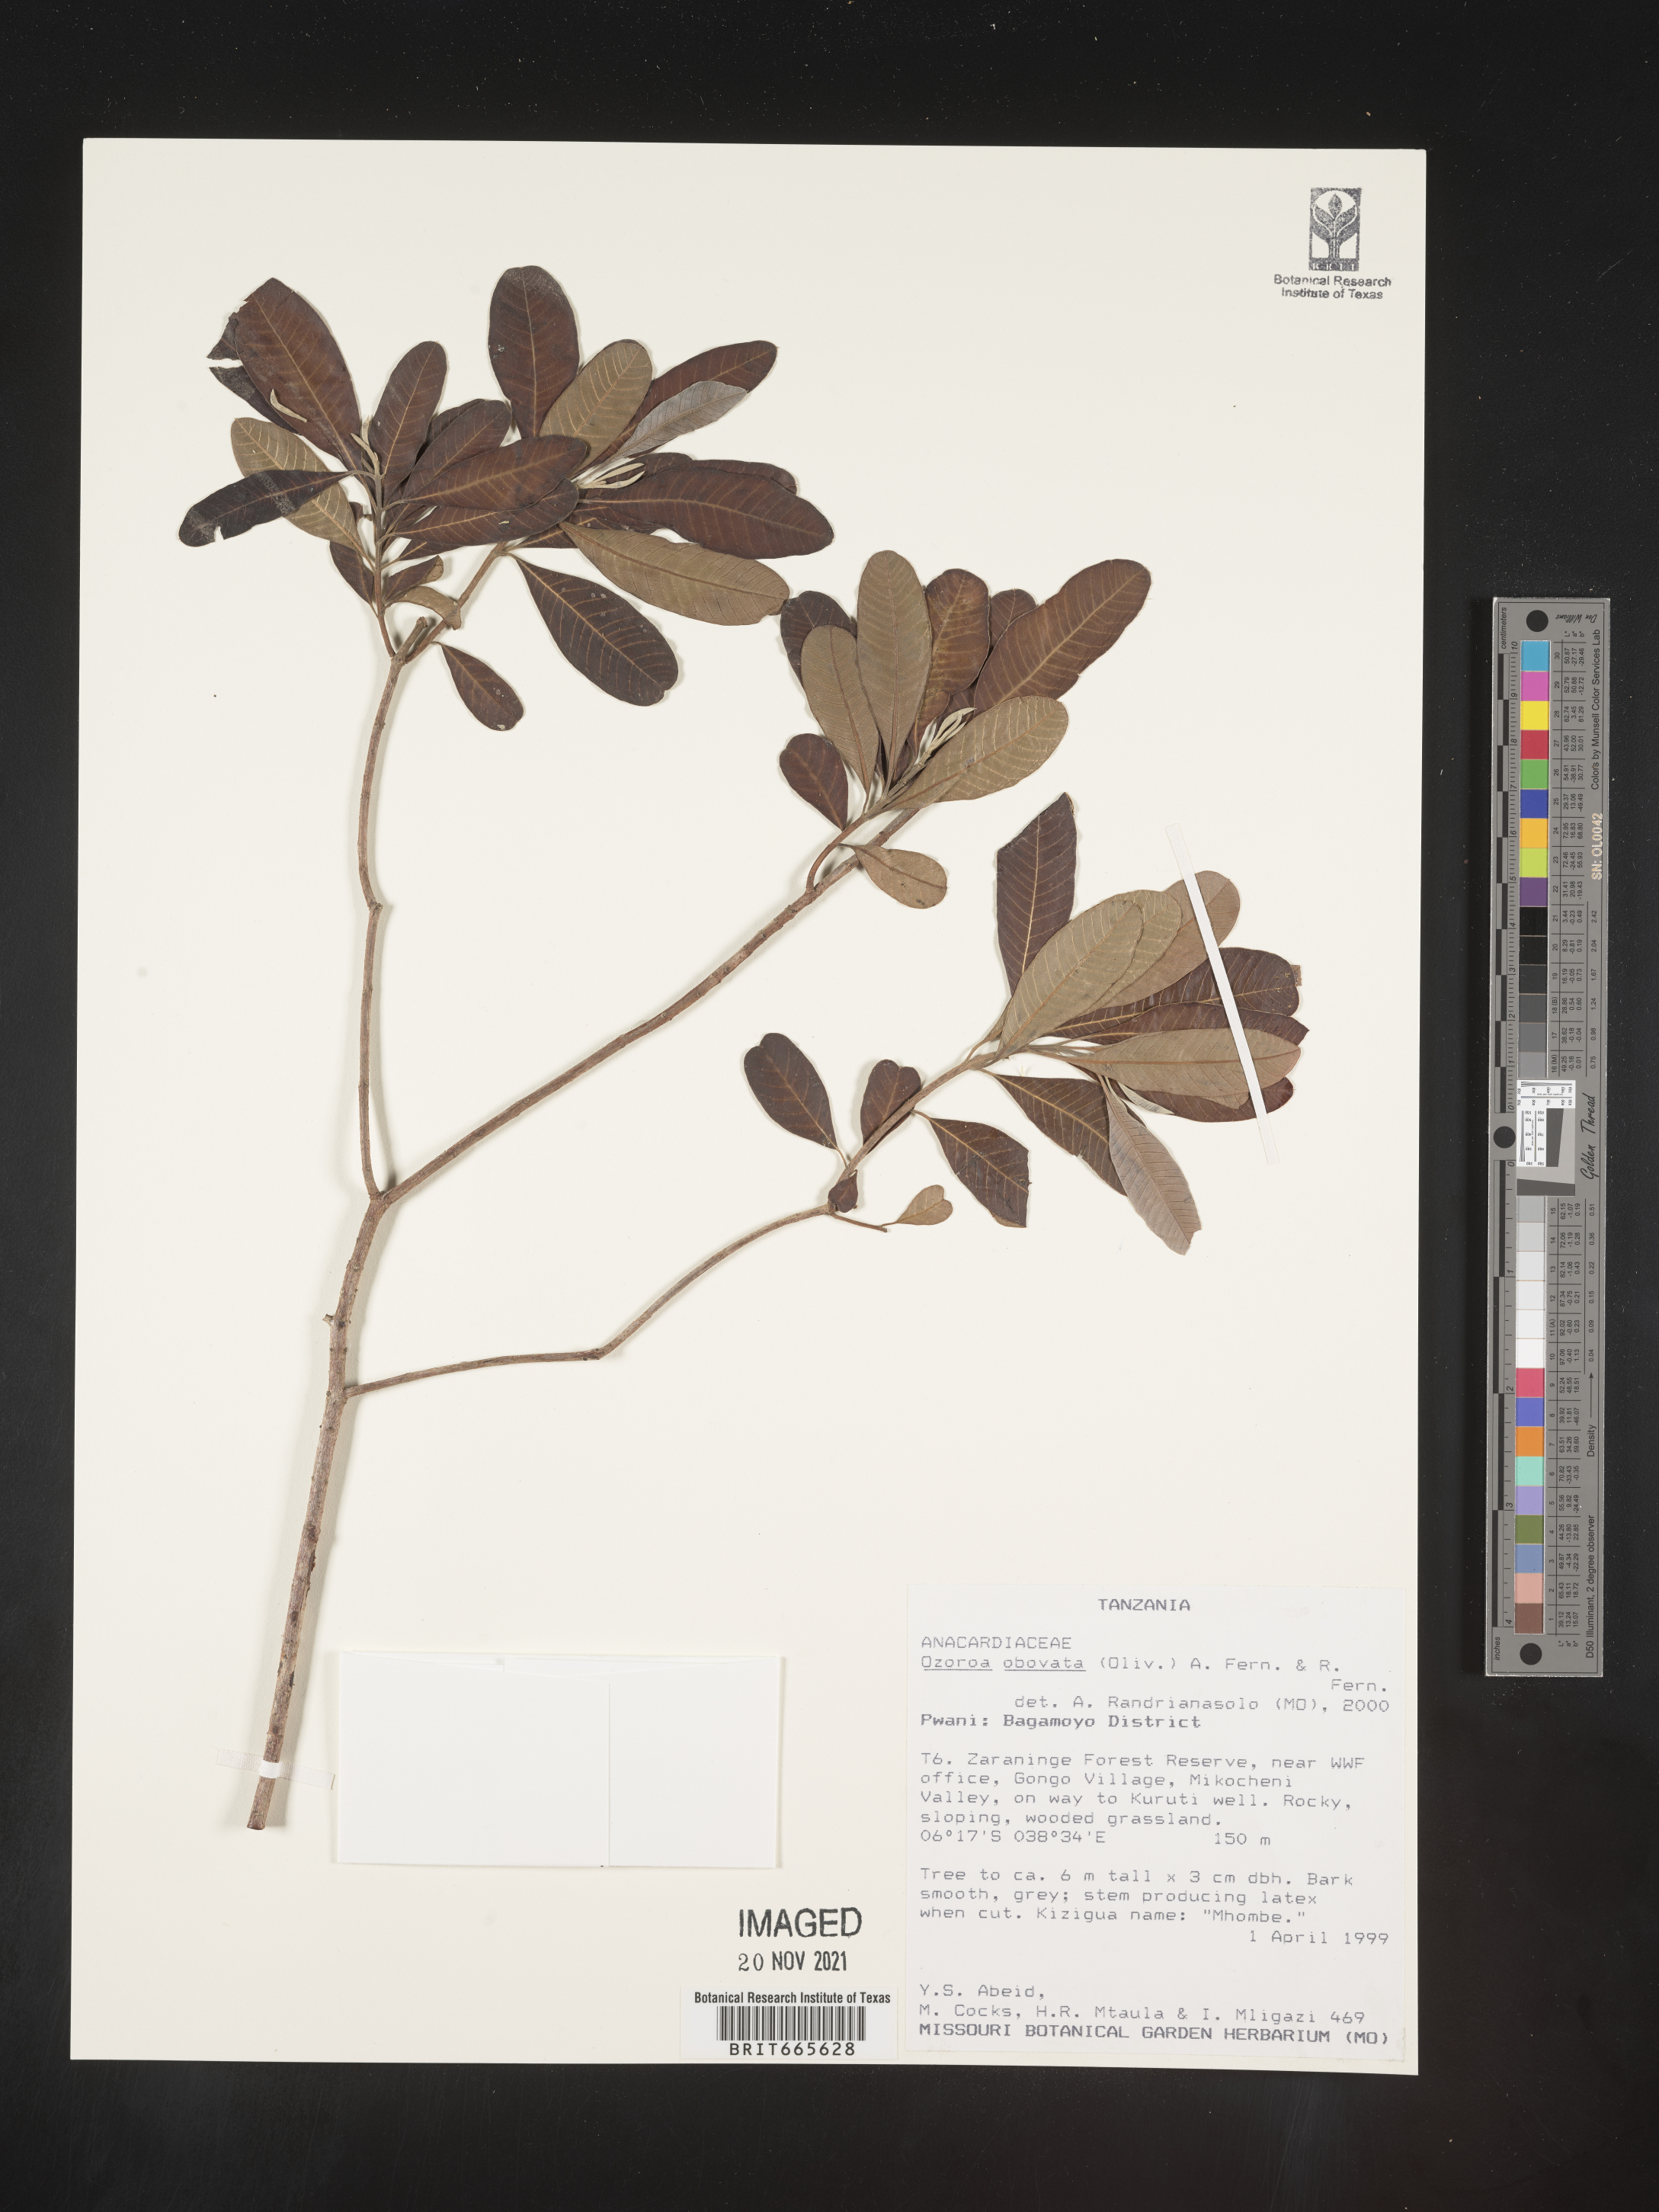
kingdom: Plantae
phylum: Tracheophyta
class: Magnoliopsida
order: Sapindales
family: Anacardiaceae
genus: Ozoroa
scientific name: Ozoroa
